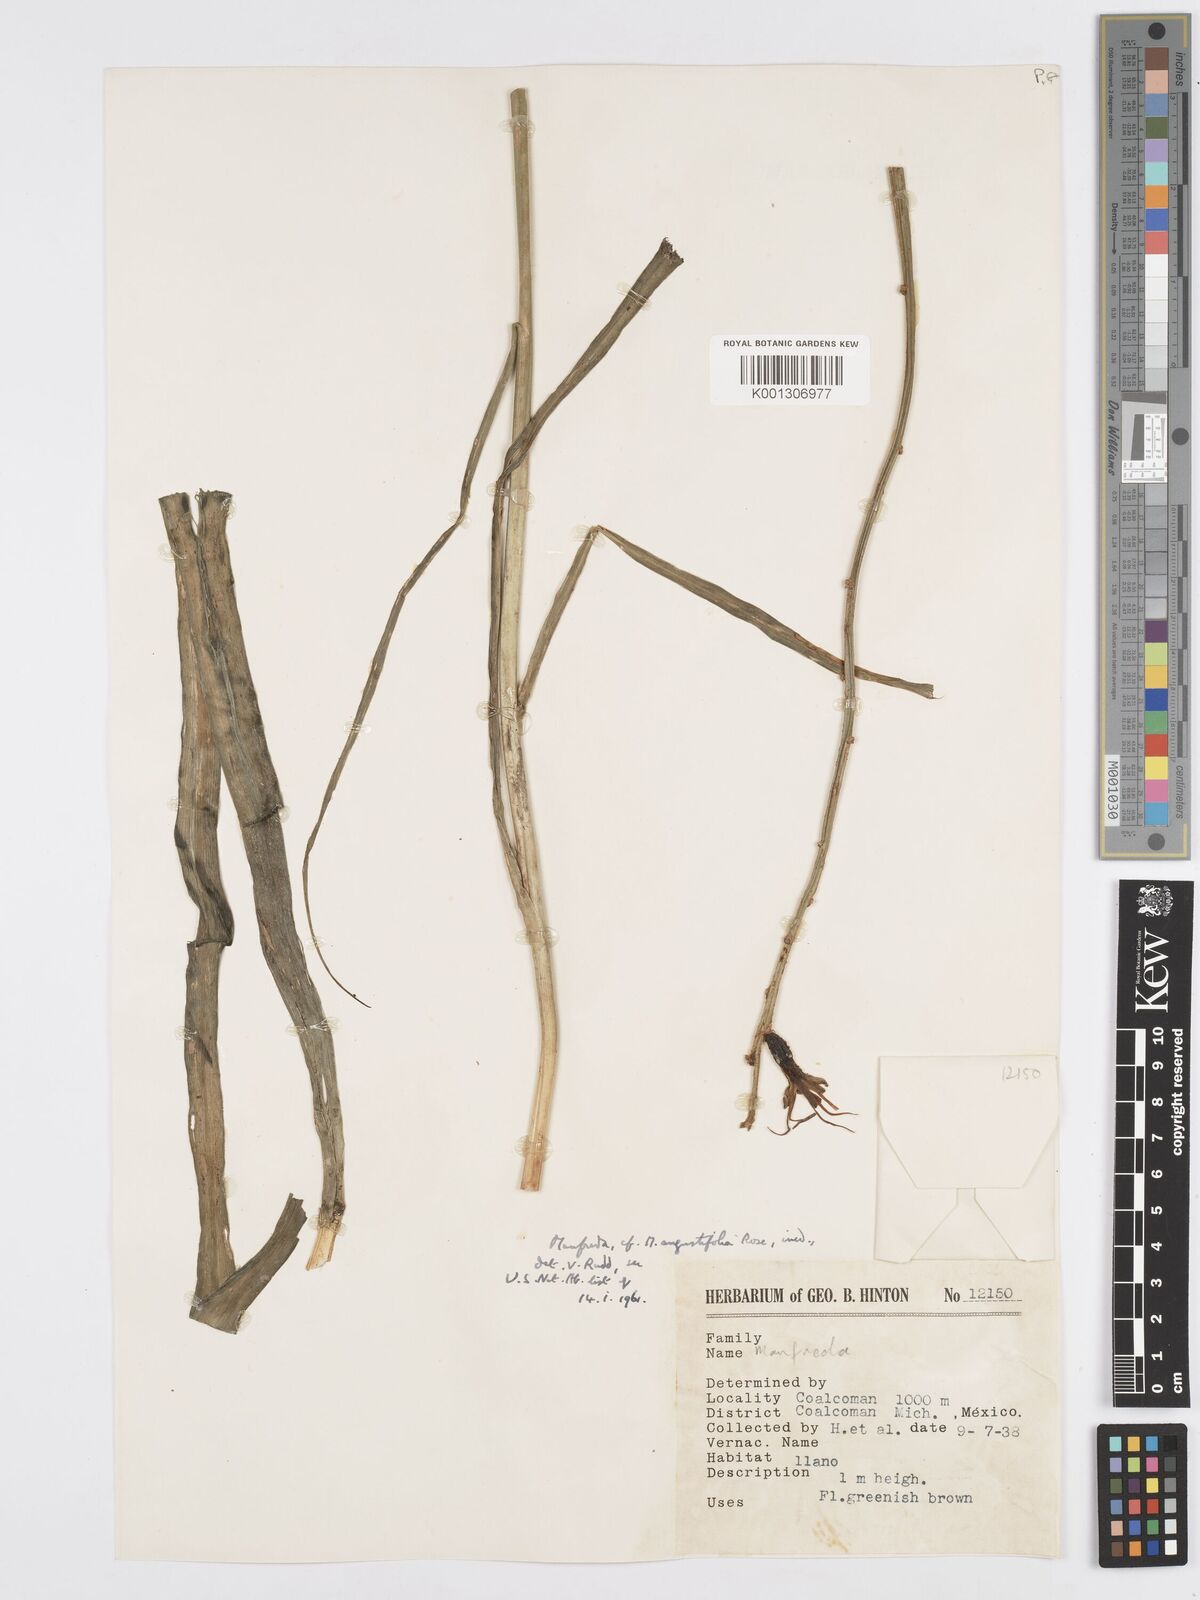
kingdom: Plantae
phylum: Tracheophyta
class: Liliopsida
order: Asparagales
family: Asparagaceae
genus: Agave
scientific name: Agave Manfreda spec
